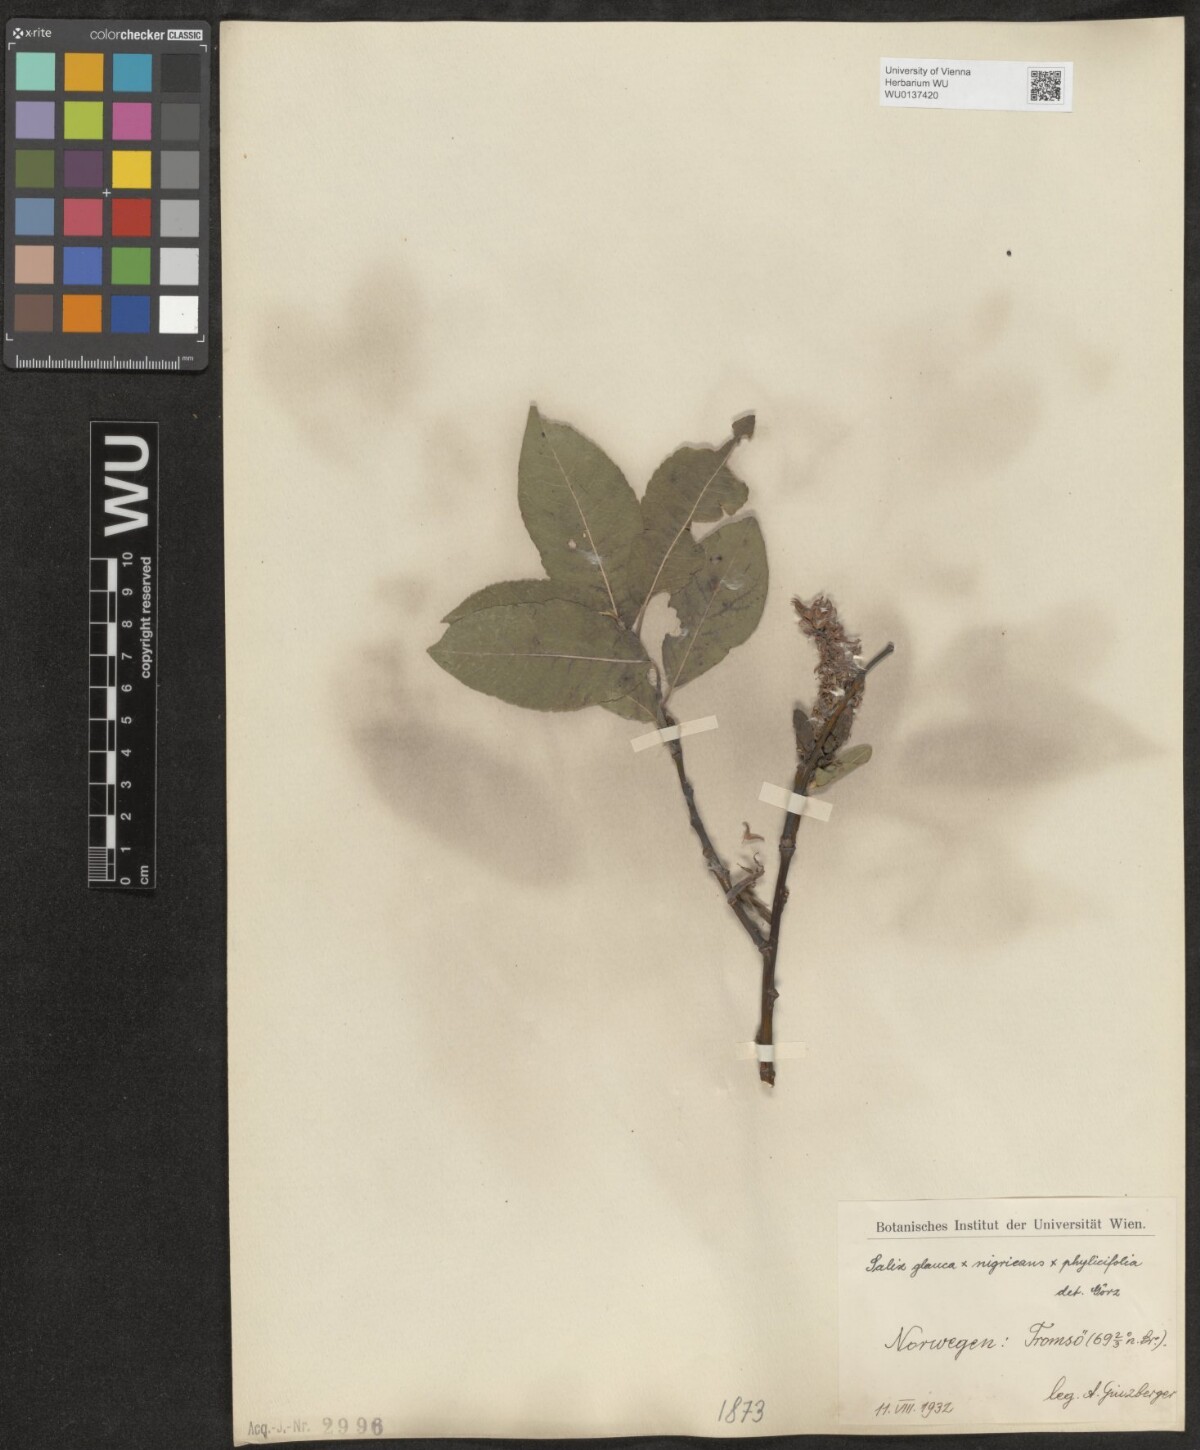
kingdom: Plantae
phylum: Tracheophyta
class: Magnoliopsida
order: Malpighiales
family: Salicaceae
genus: Salix
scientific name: Salix
